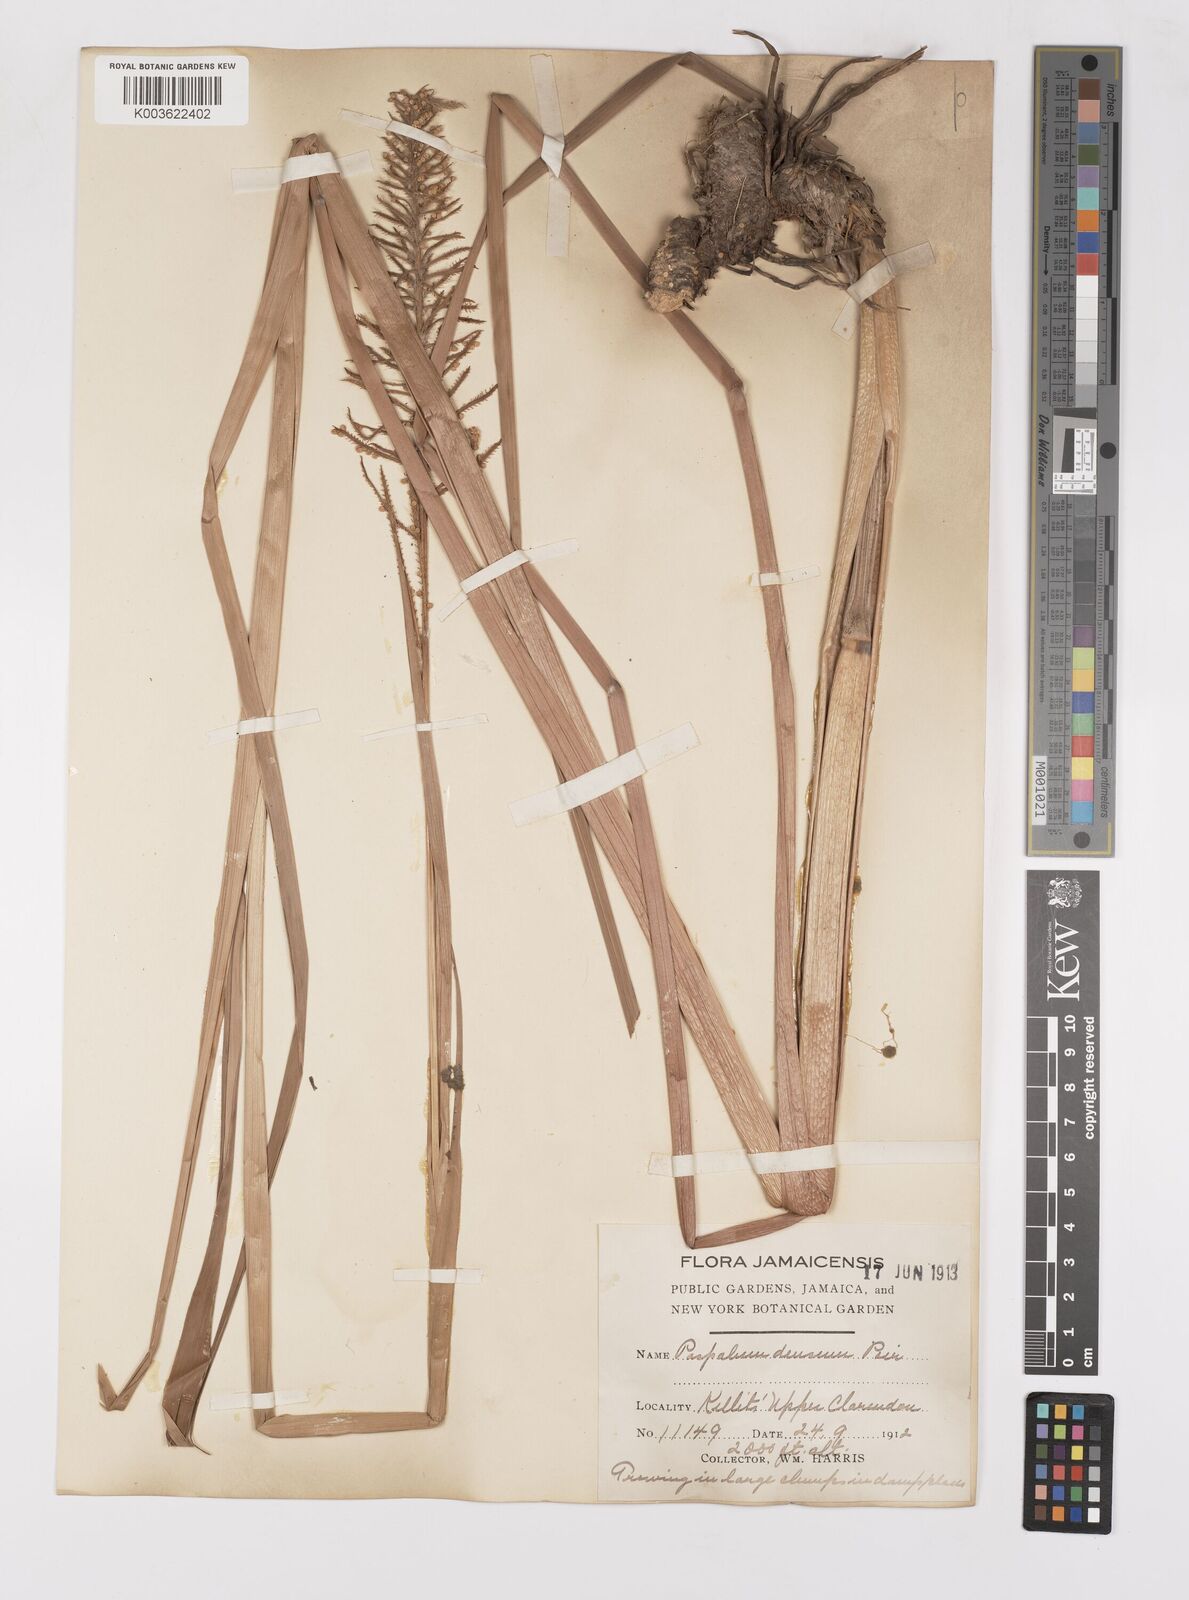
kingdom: Plantae
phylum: Tracheophyta
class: Liliopsida
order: Poales
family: Poaceae
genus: Paspalum
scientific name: Paspalum densum
